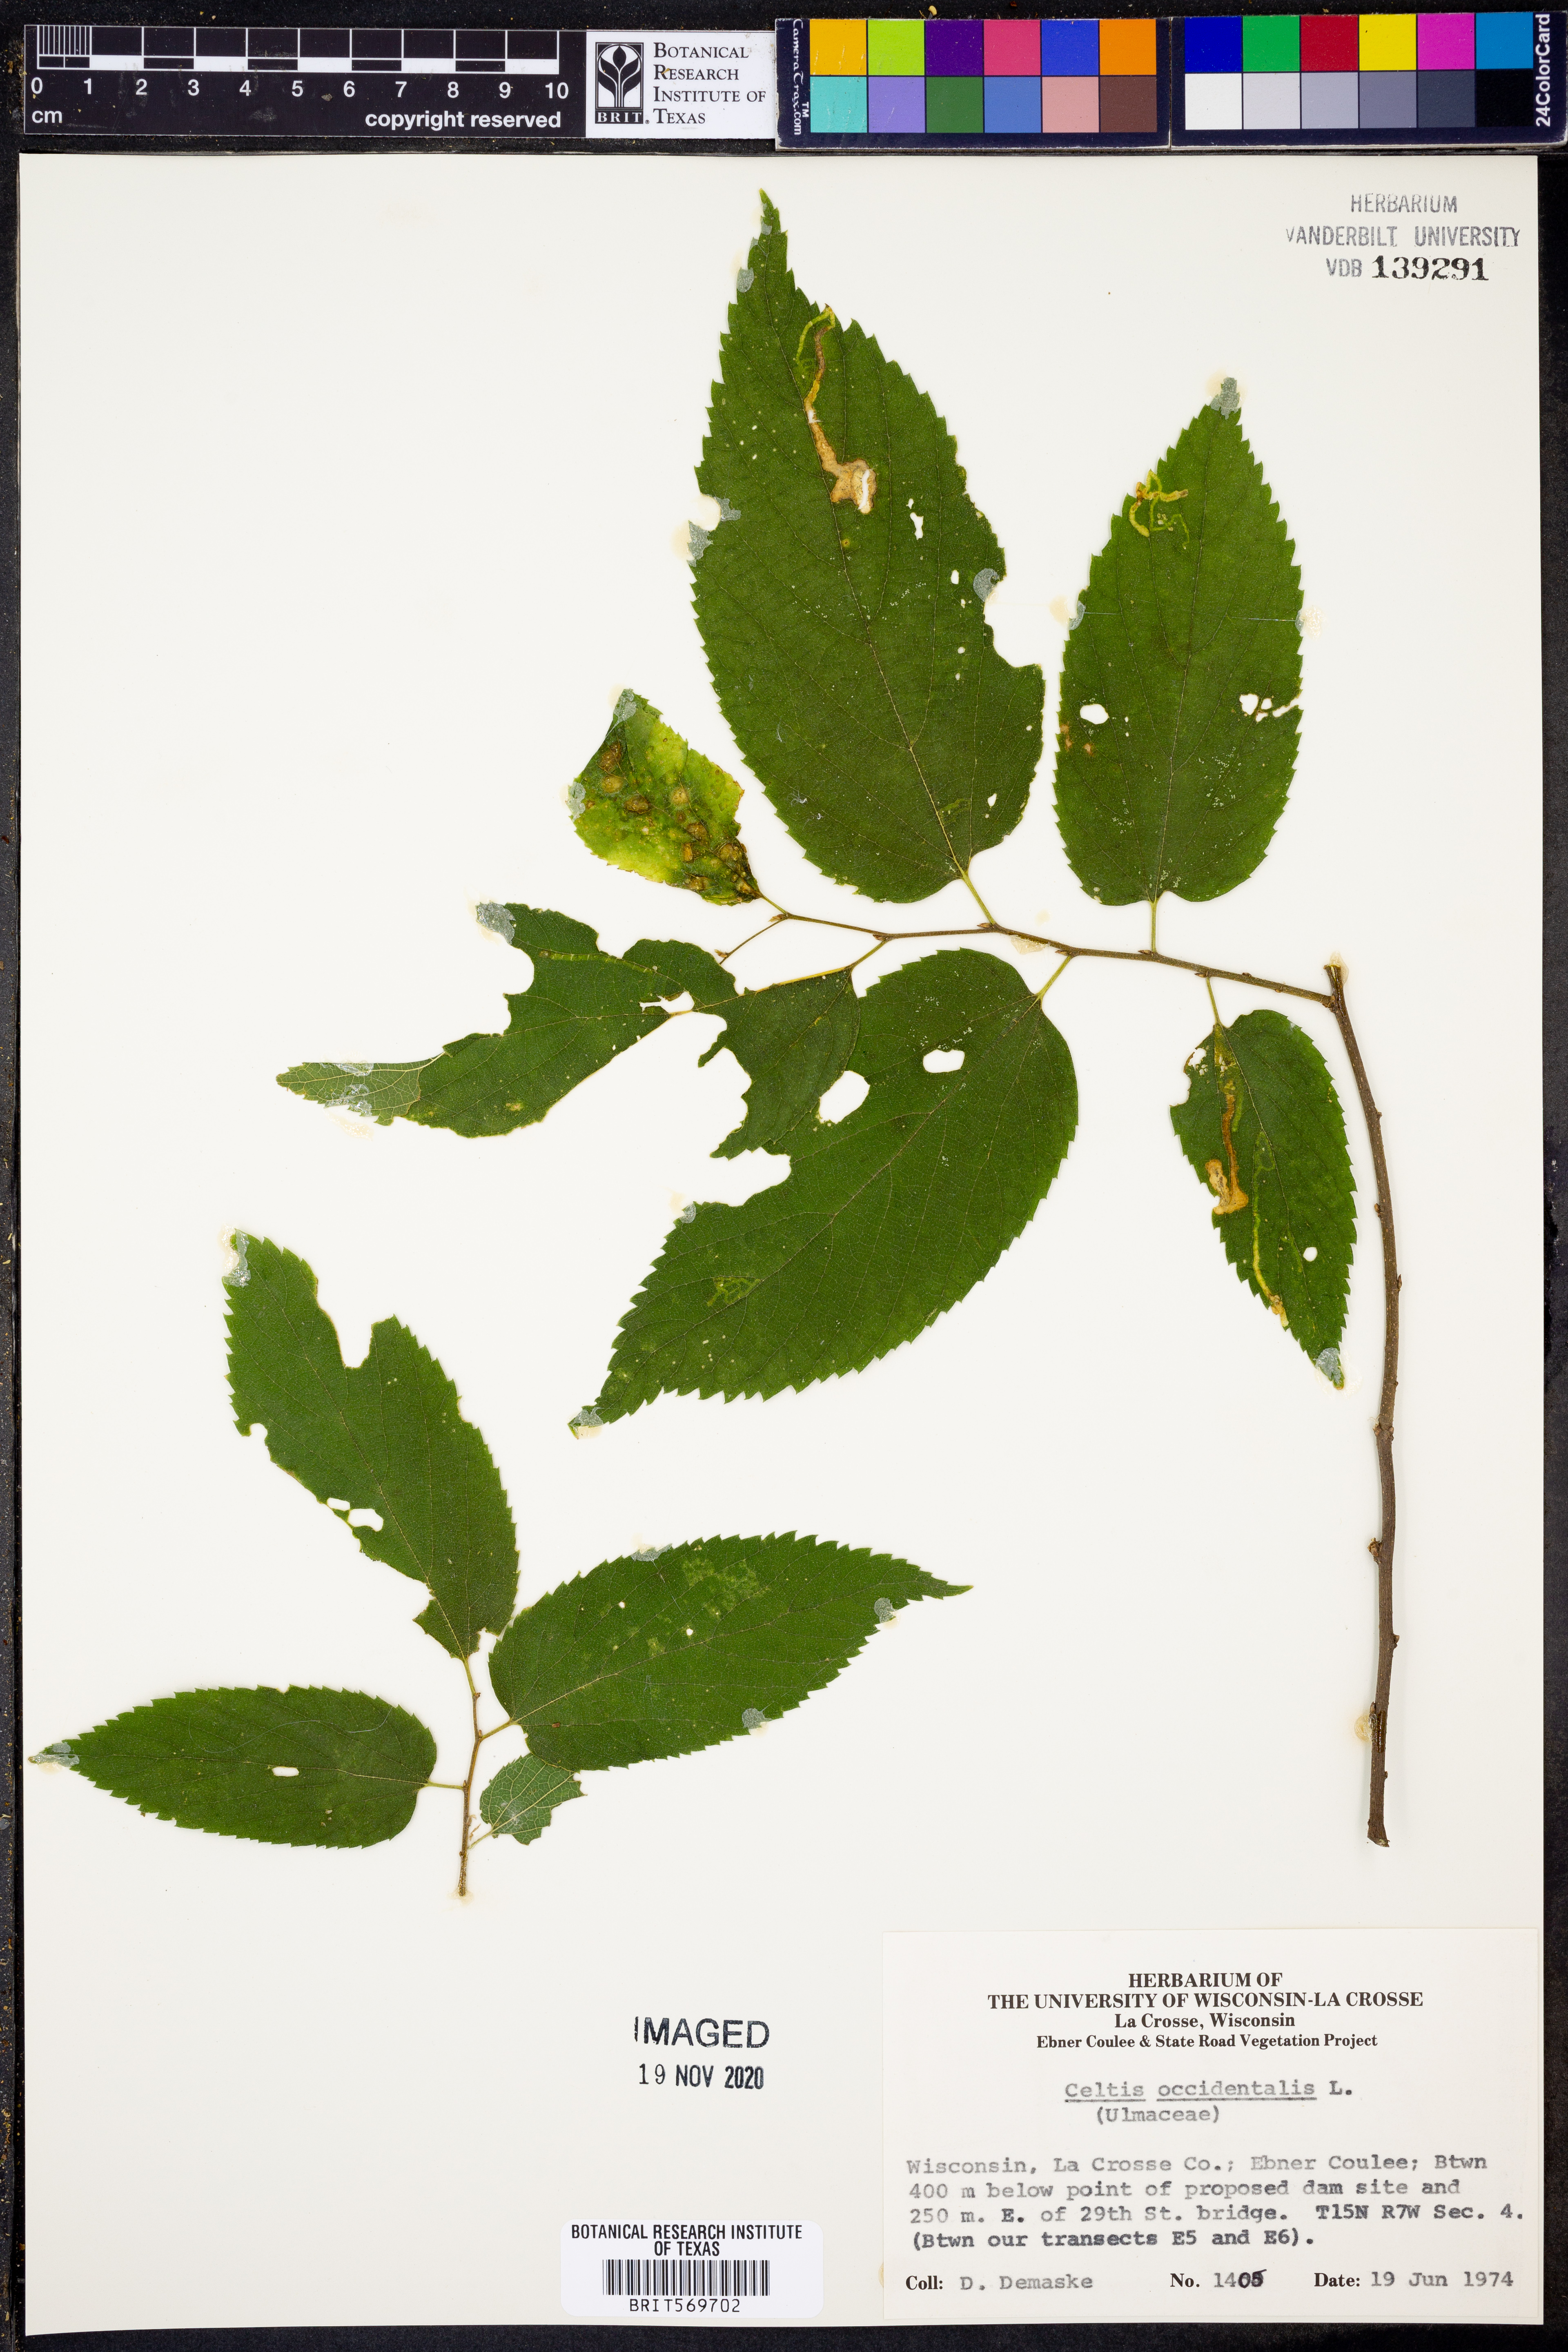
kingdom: Plantae
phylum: Tracheophyta
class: Magnoliopsida
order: Rosales
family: Cannabaceae
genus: Celtis
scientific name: Celtis occidentalis
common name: Common hackberry
